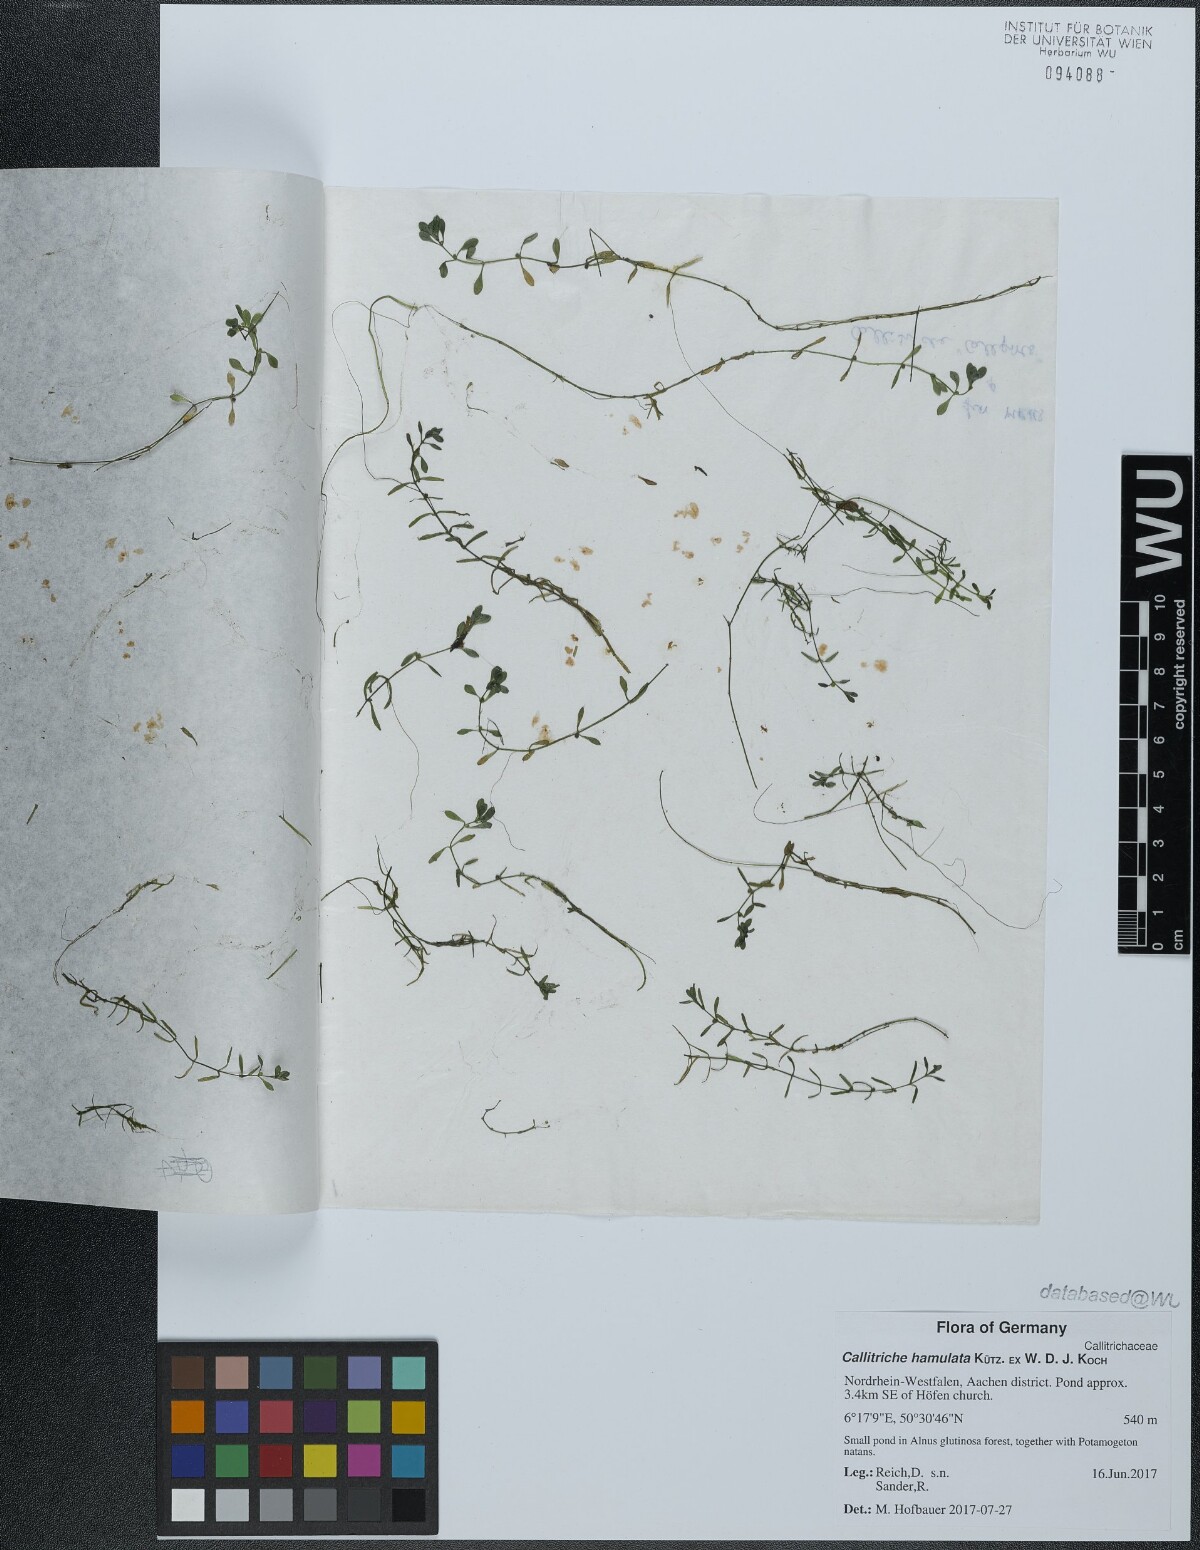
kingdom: Plantae
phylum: Tracheophyta
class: Magnoliopsida
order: Lamiales
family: Plantaginaceae
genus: Callitriche
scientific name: Callitriche hamulata
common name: Intermediate water-starwort
